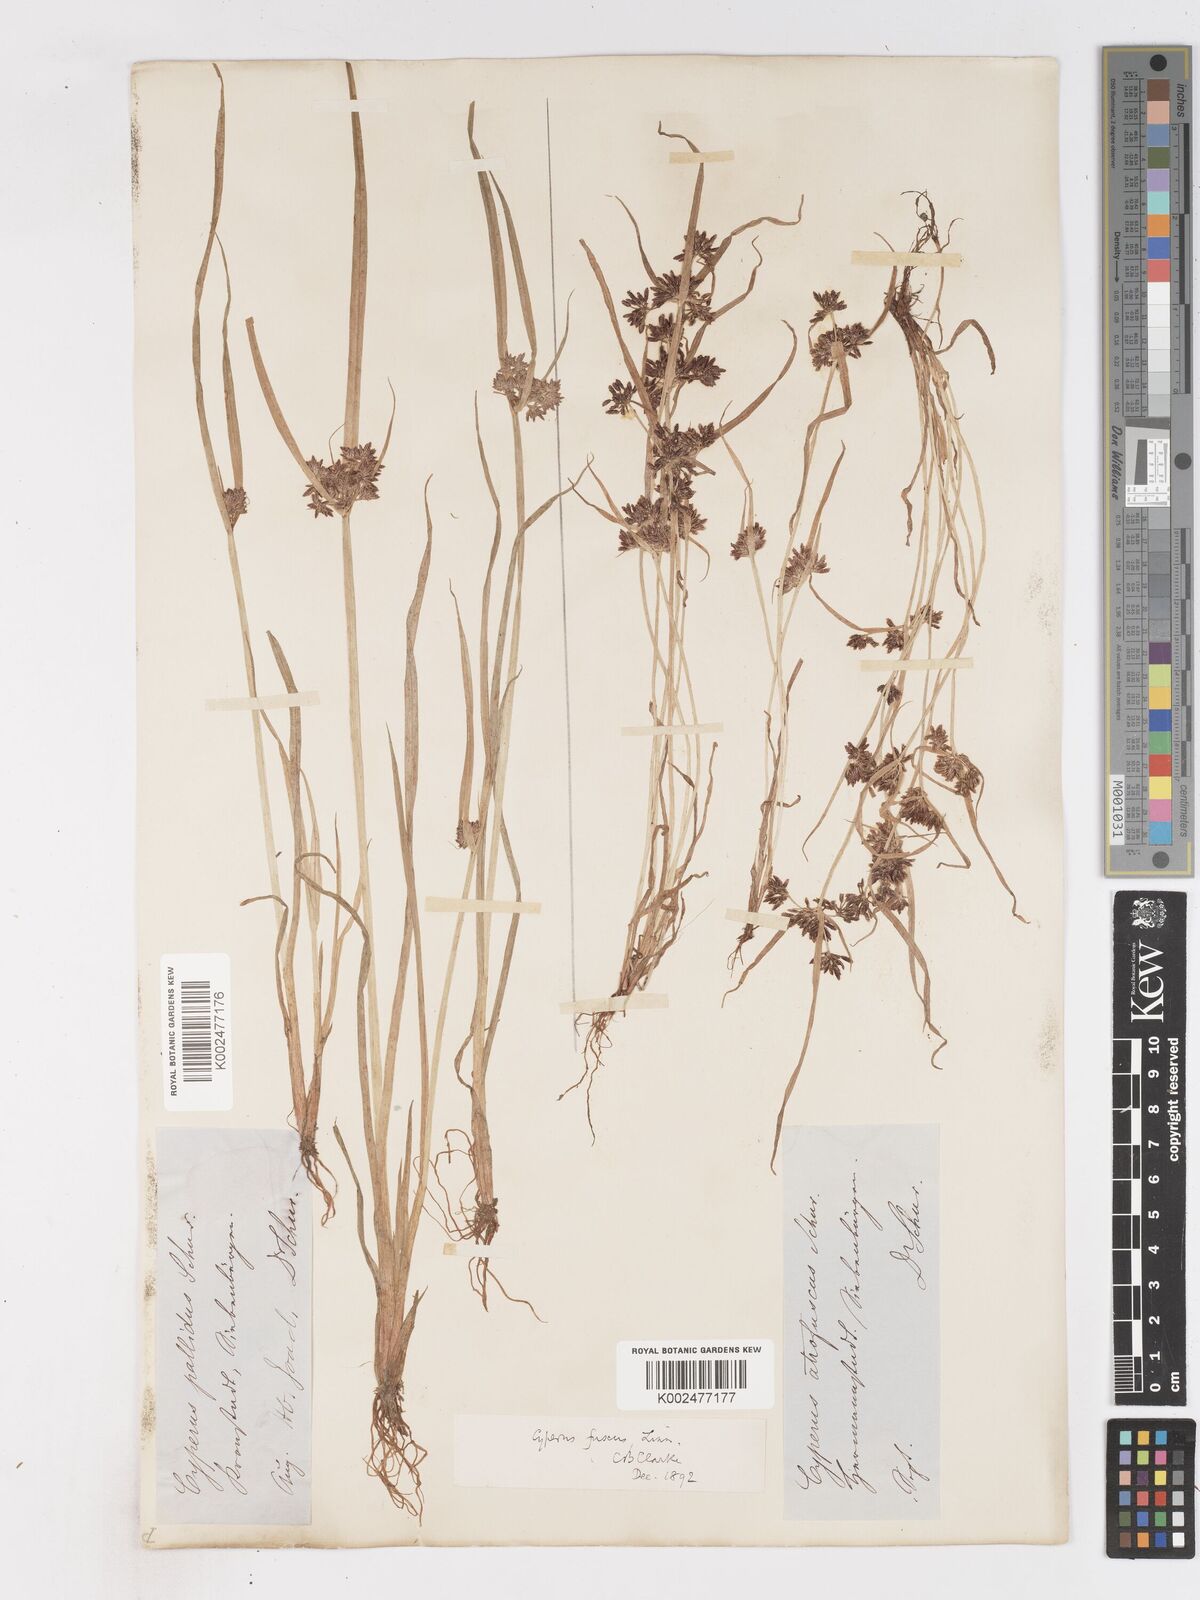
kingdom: Plantae
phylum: Tracheophyta
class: Liliopsida
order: Poales
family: Cyperaceae
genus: Cyperus
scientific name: Cyperus fuscus
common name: Brown galingale
